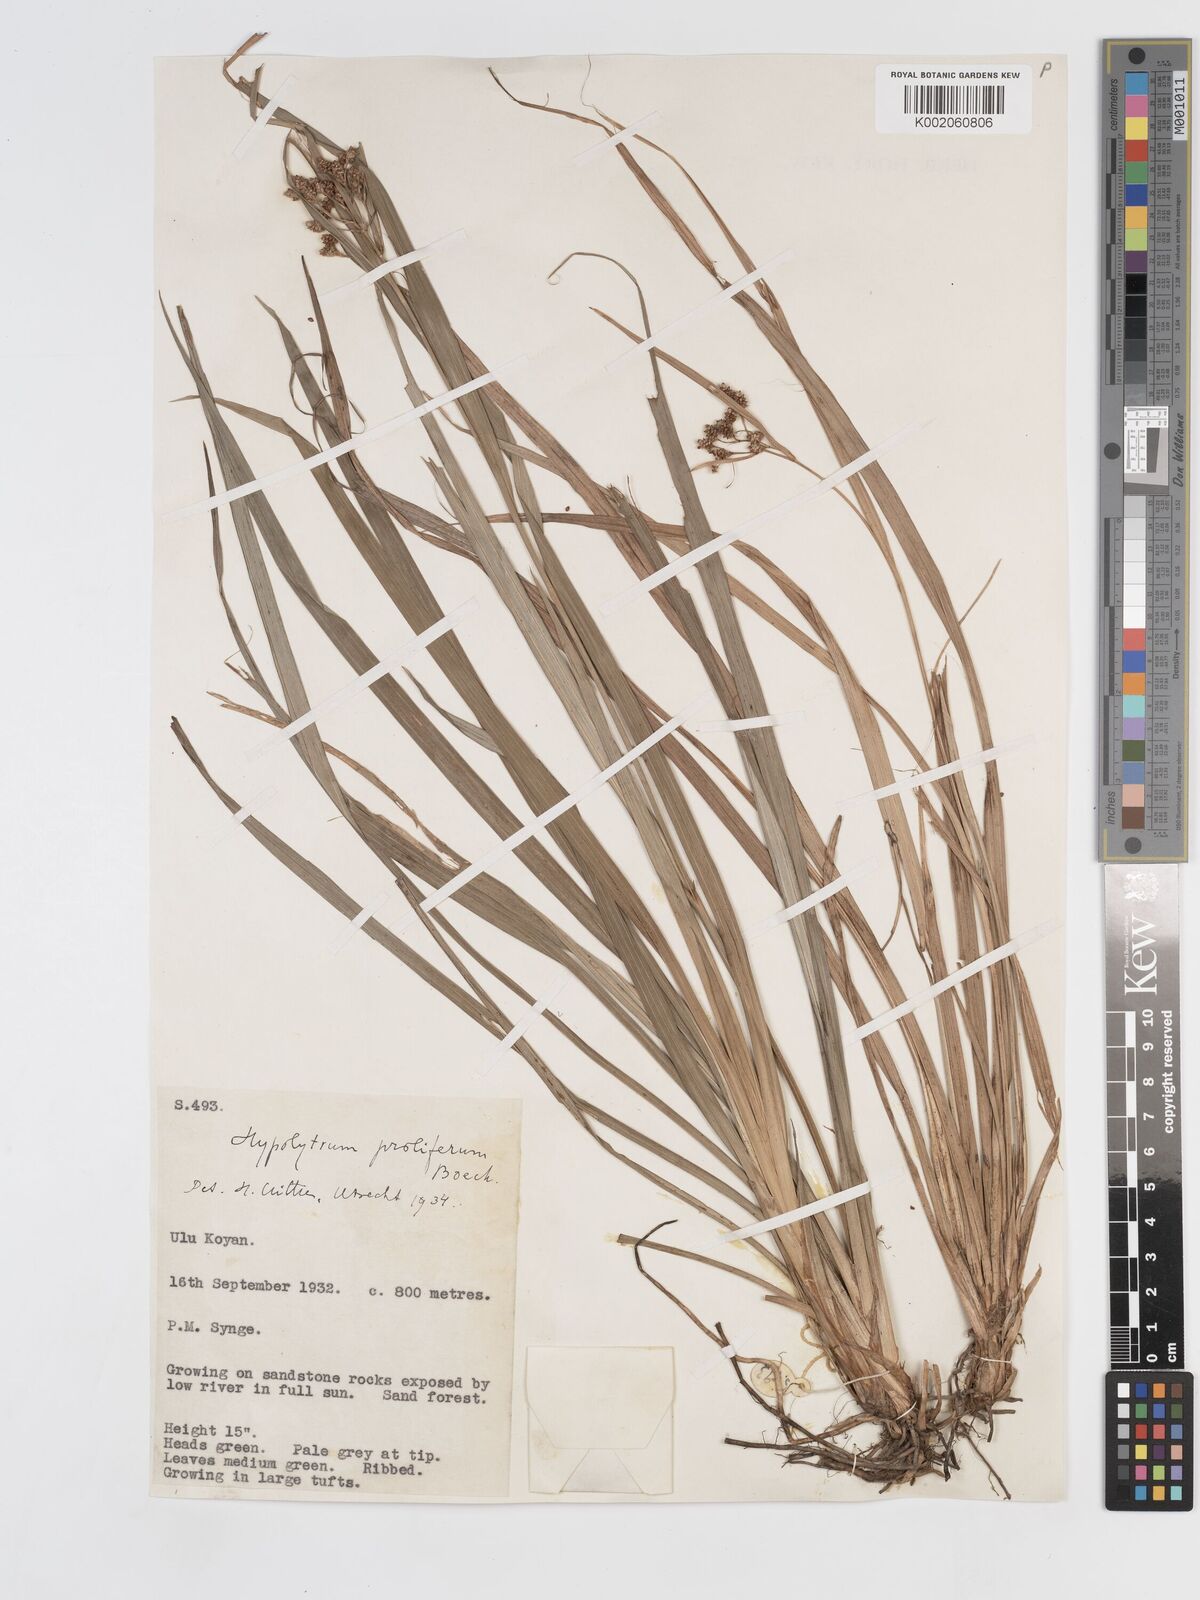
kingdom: Plantae
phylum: Tracheophyta
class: Liliopsida
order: Poales
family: Cyperaceae
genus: Hypolytrum
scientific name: Hypolytrum nemorum
